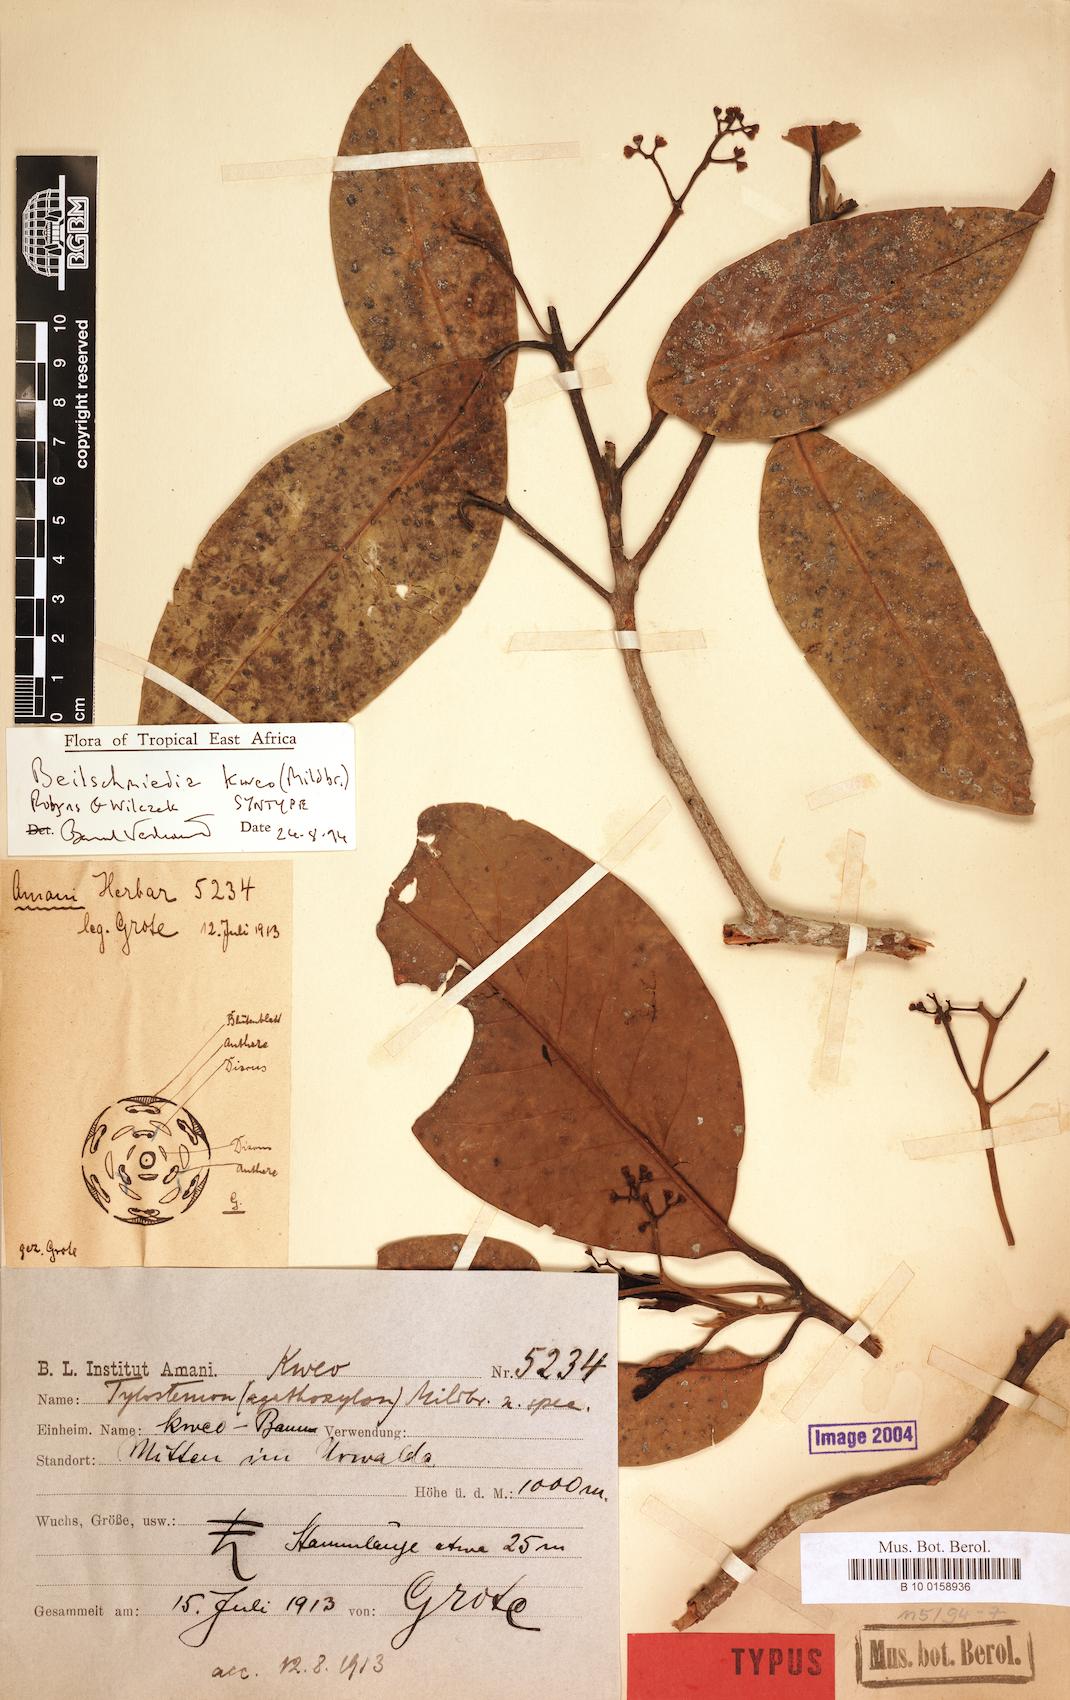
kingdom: Plantae
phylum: Tracheophyta
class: Magnoliopsida
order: Laurales
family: Lauraceae
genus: Beilschmiedia
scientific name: Beilschmiedia kweo
